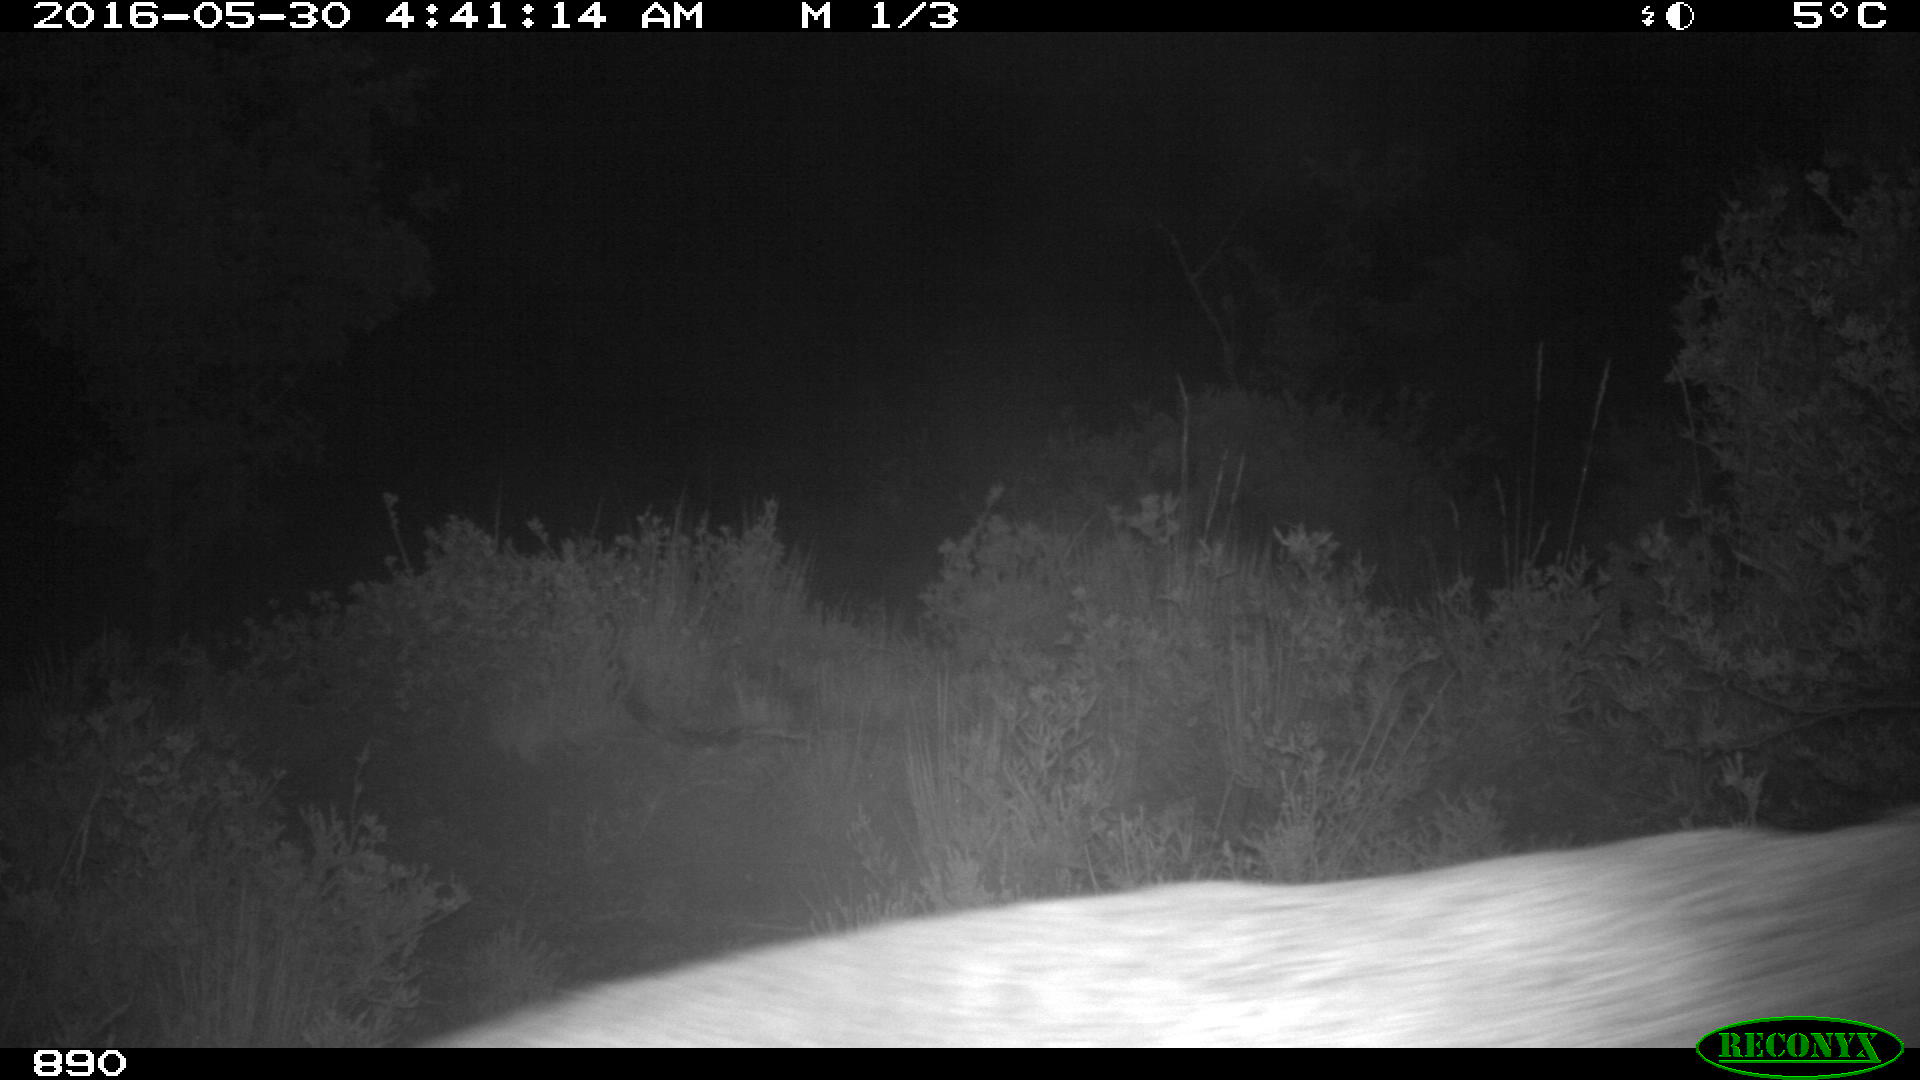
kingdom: Animalia
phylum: Chordata
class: Mammalia
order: Artiodactyla
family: Cervidae
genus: Capreolus
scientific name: Capreolus capreolus
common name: Western roe deer
